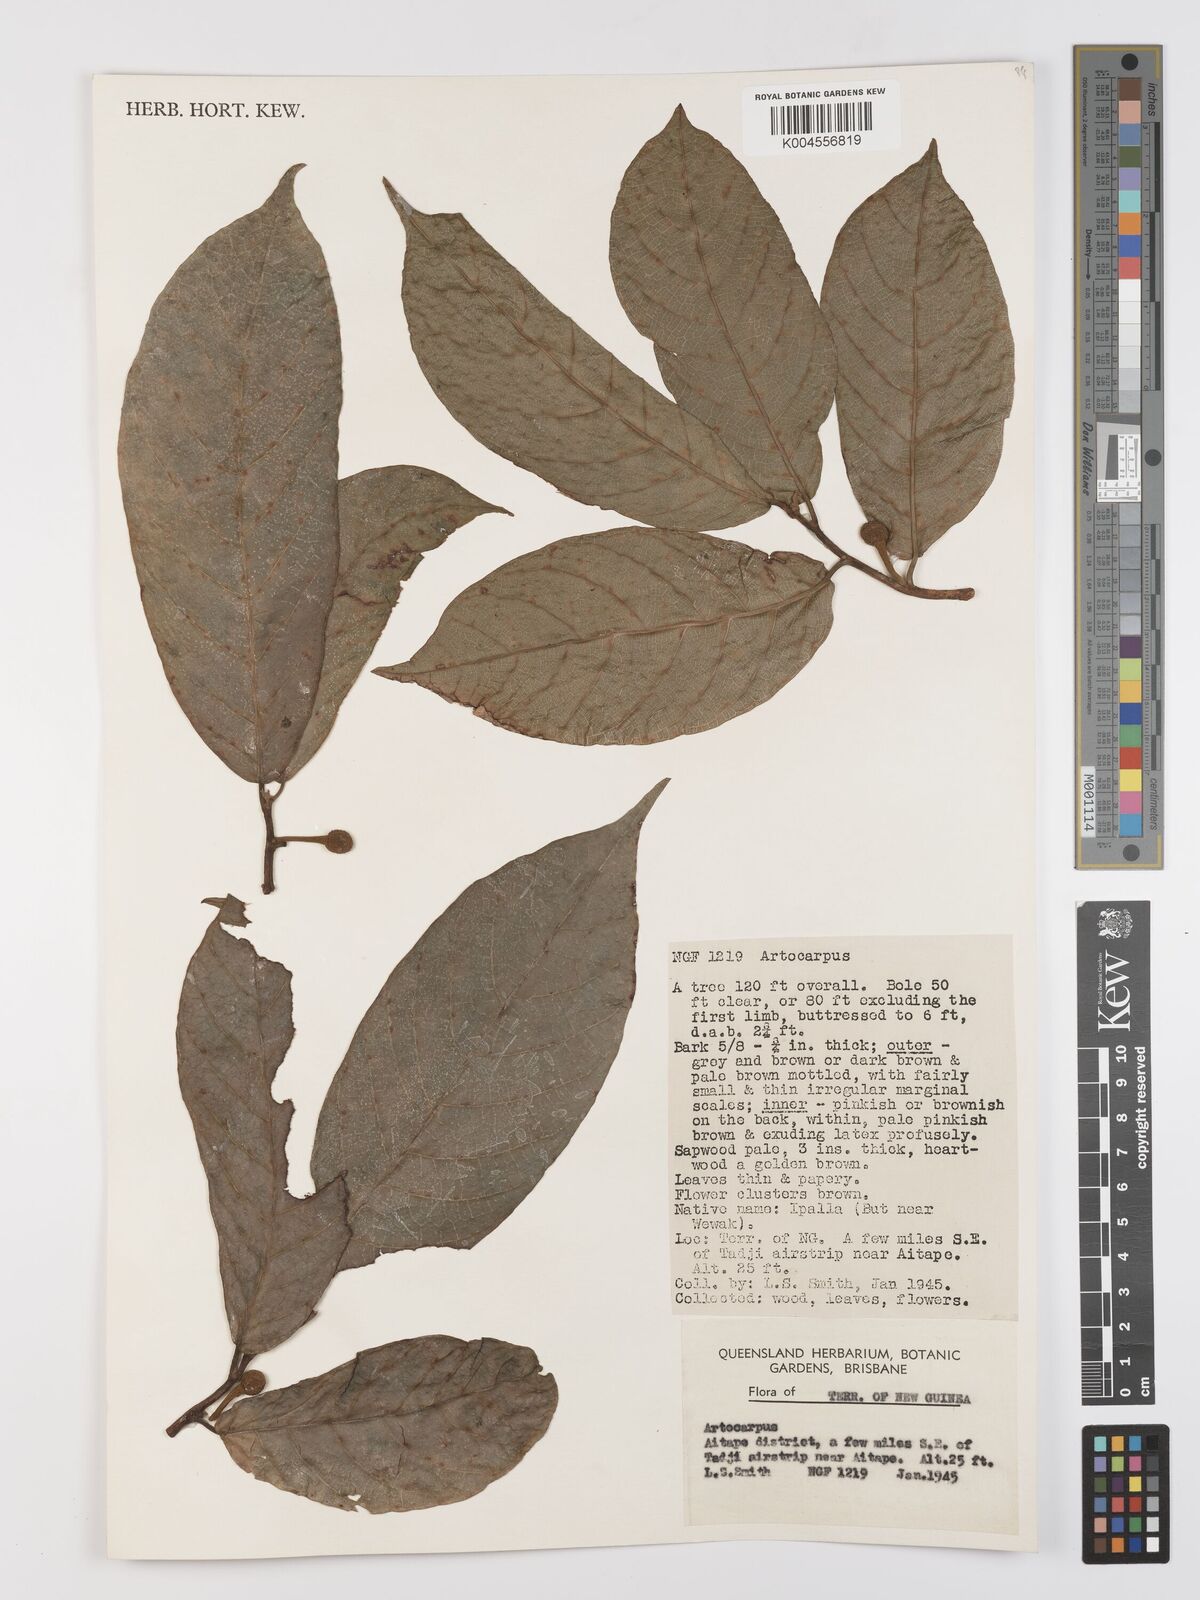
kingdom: Plantae
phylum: Tracheophyta
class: Magnoliopsida
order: Rosales
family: Moraceae
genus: Artocarpus
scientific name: Artocarpus
